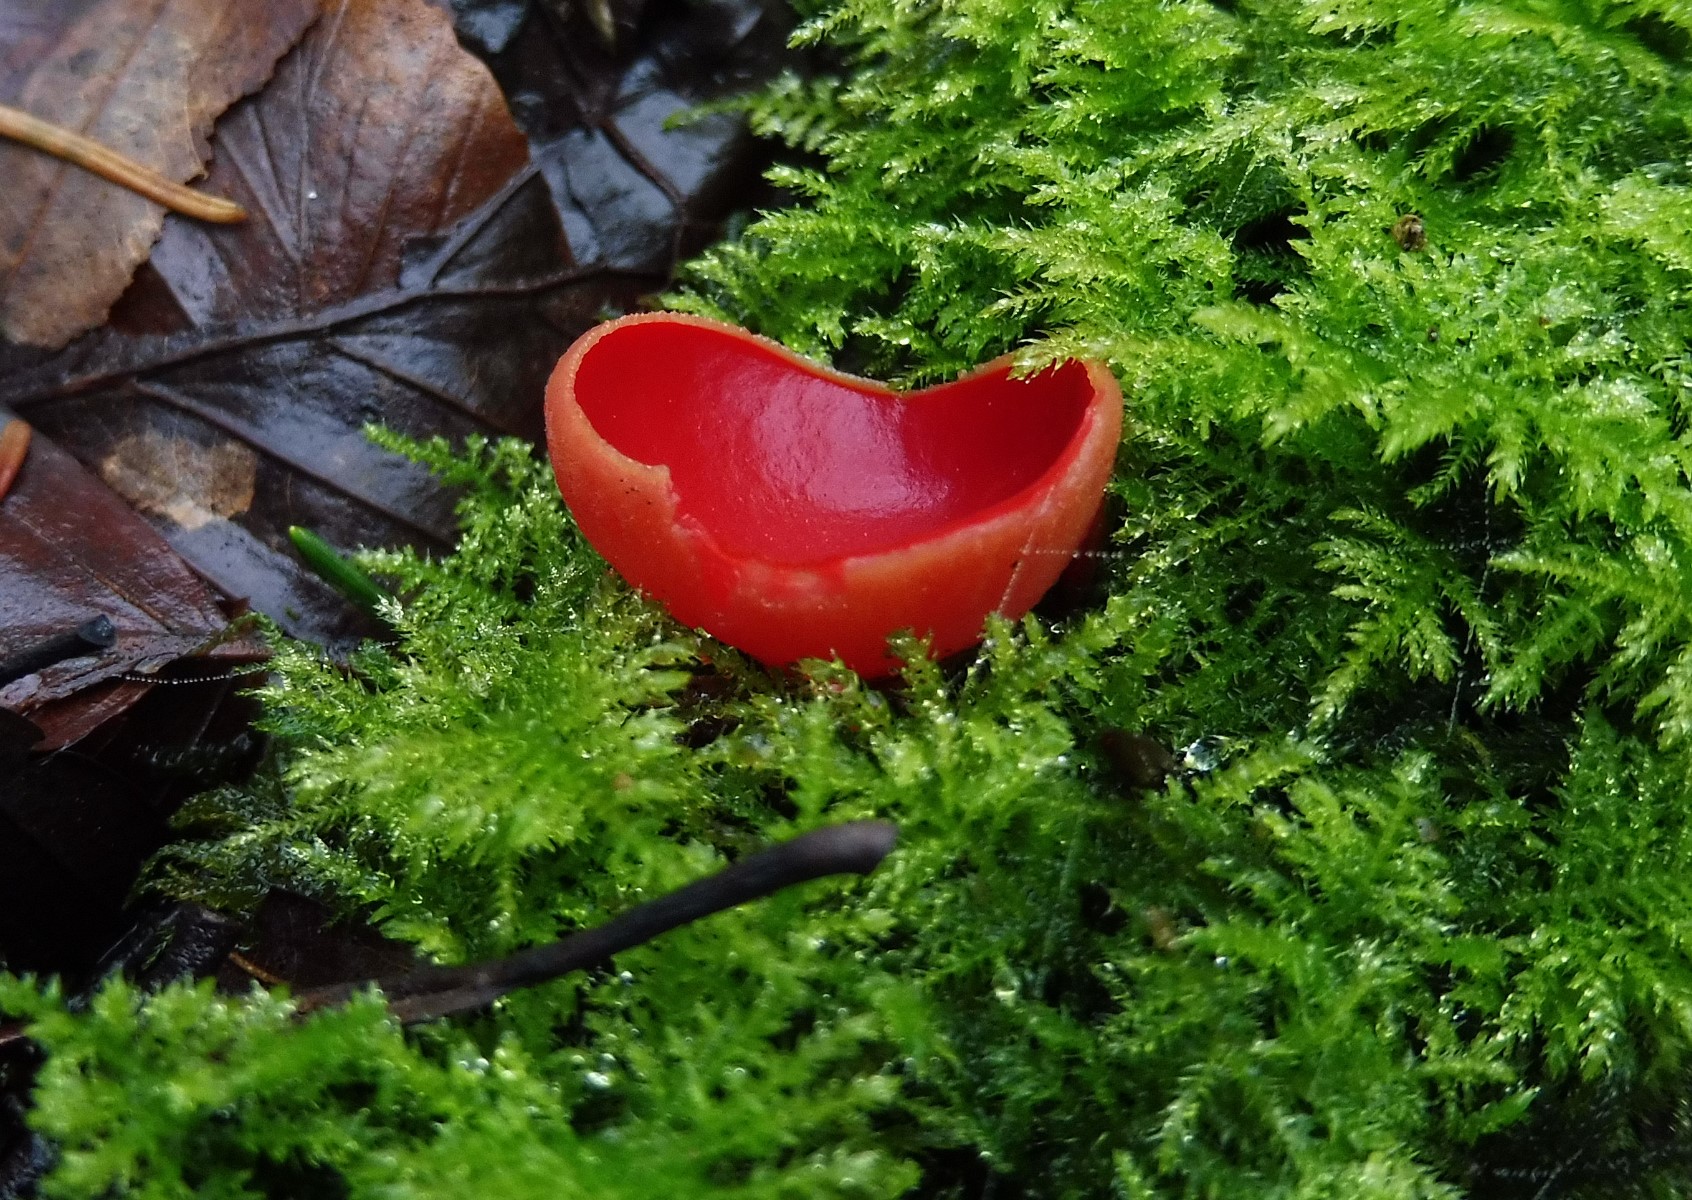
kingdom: Fungi
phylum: Ascomycota
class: Pezizomycetes
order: Pezizales
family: Sarcoscyphaceae
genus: Sarcoscypha
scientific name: Sarcoscypha austriaca
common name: krølhåret pragtbæger
